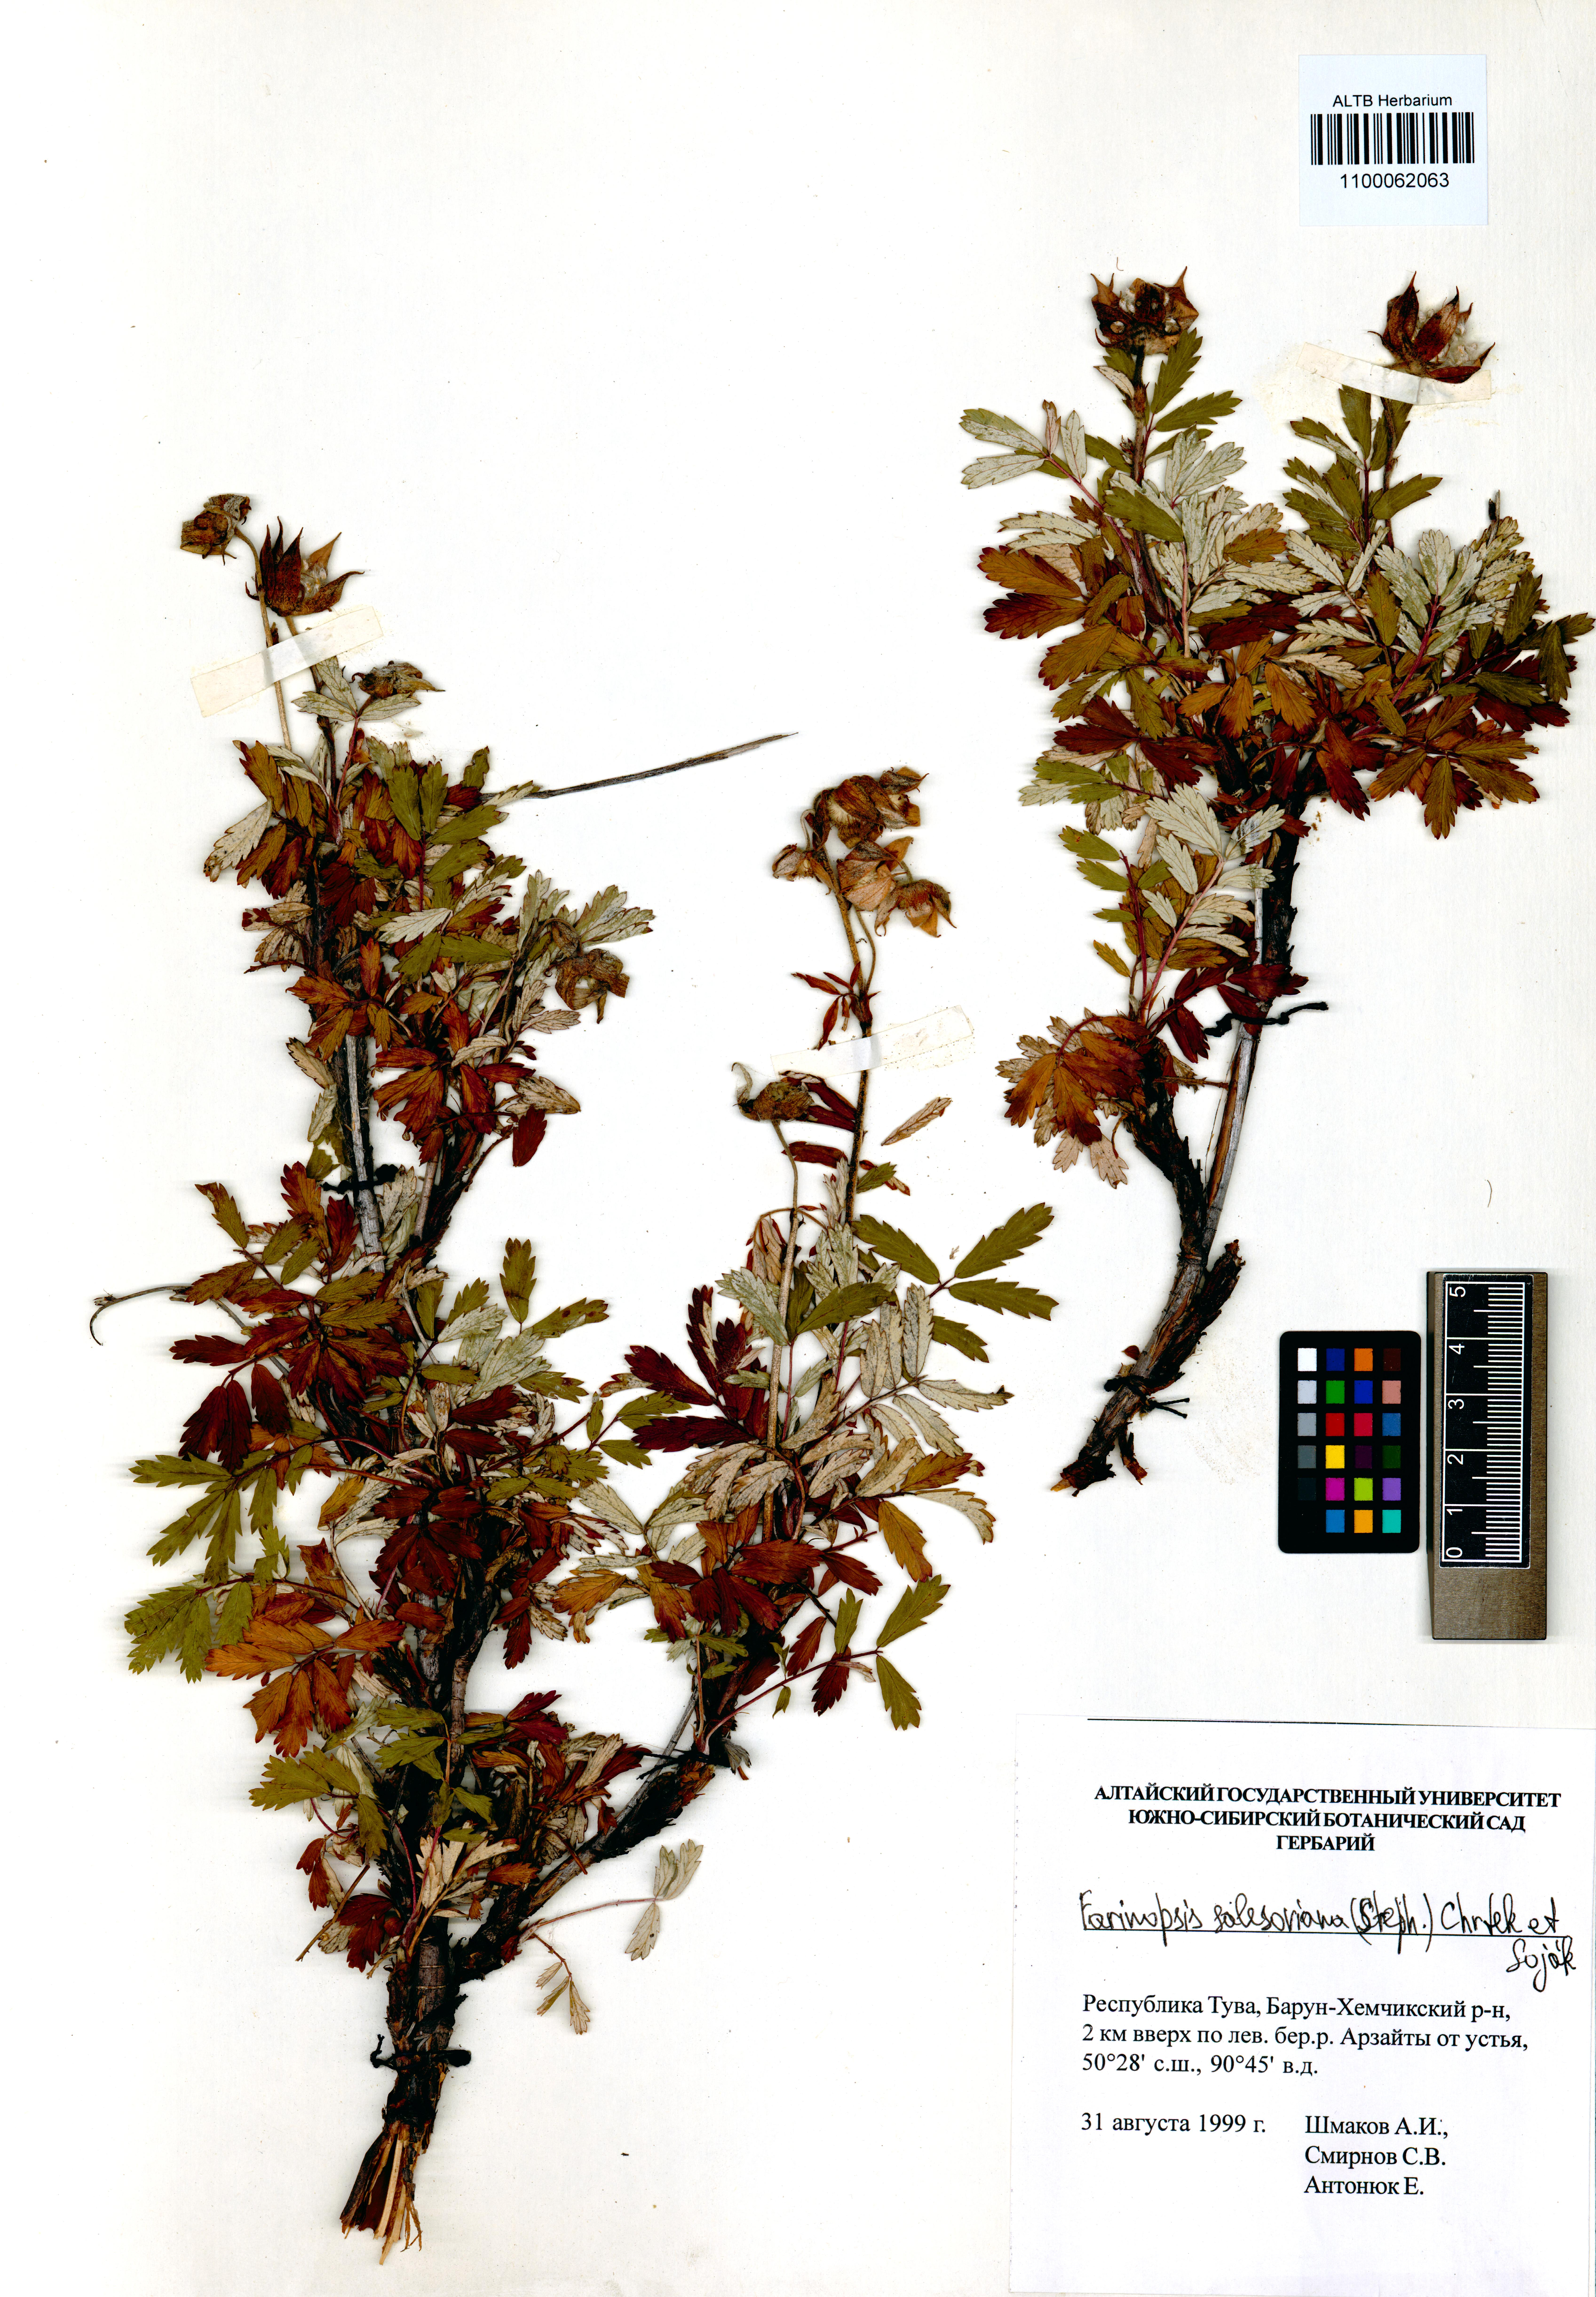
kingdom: Plantae
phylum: Tracheophyta
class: Magnoliopsida
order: Rosales
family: Rosaceae
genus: Farinopsis
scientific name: Farinopsis salesoviana
